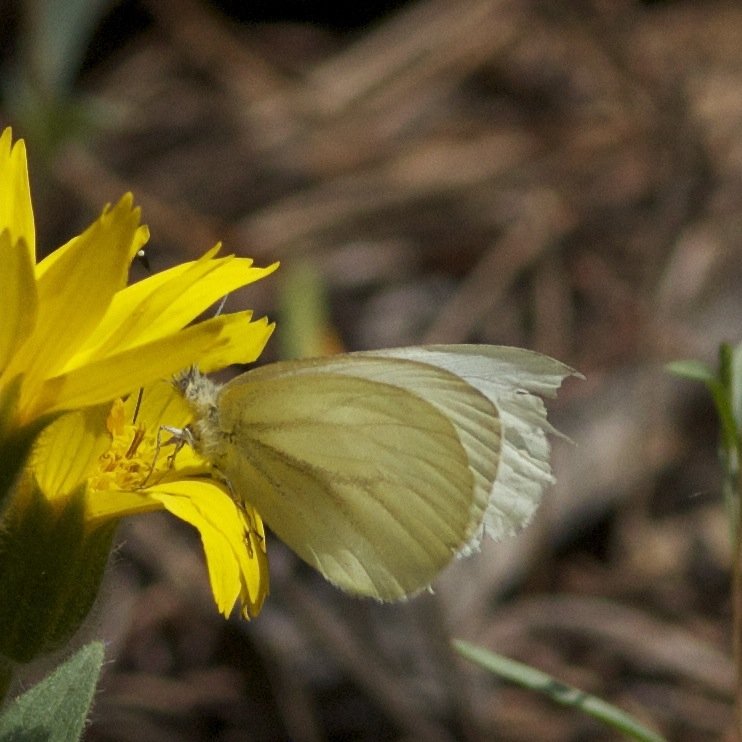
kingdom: Animalia
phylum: Arthropoda
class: Insecta
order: Lepidoptera
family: Pieridae
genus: Pieris
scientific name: Pieris marginalis
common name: Margined White
